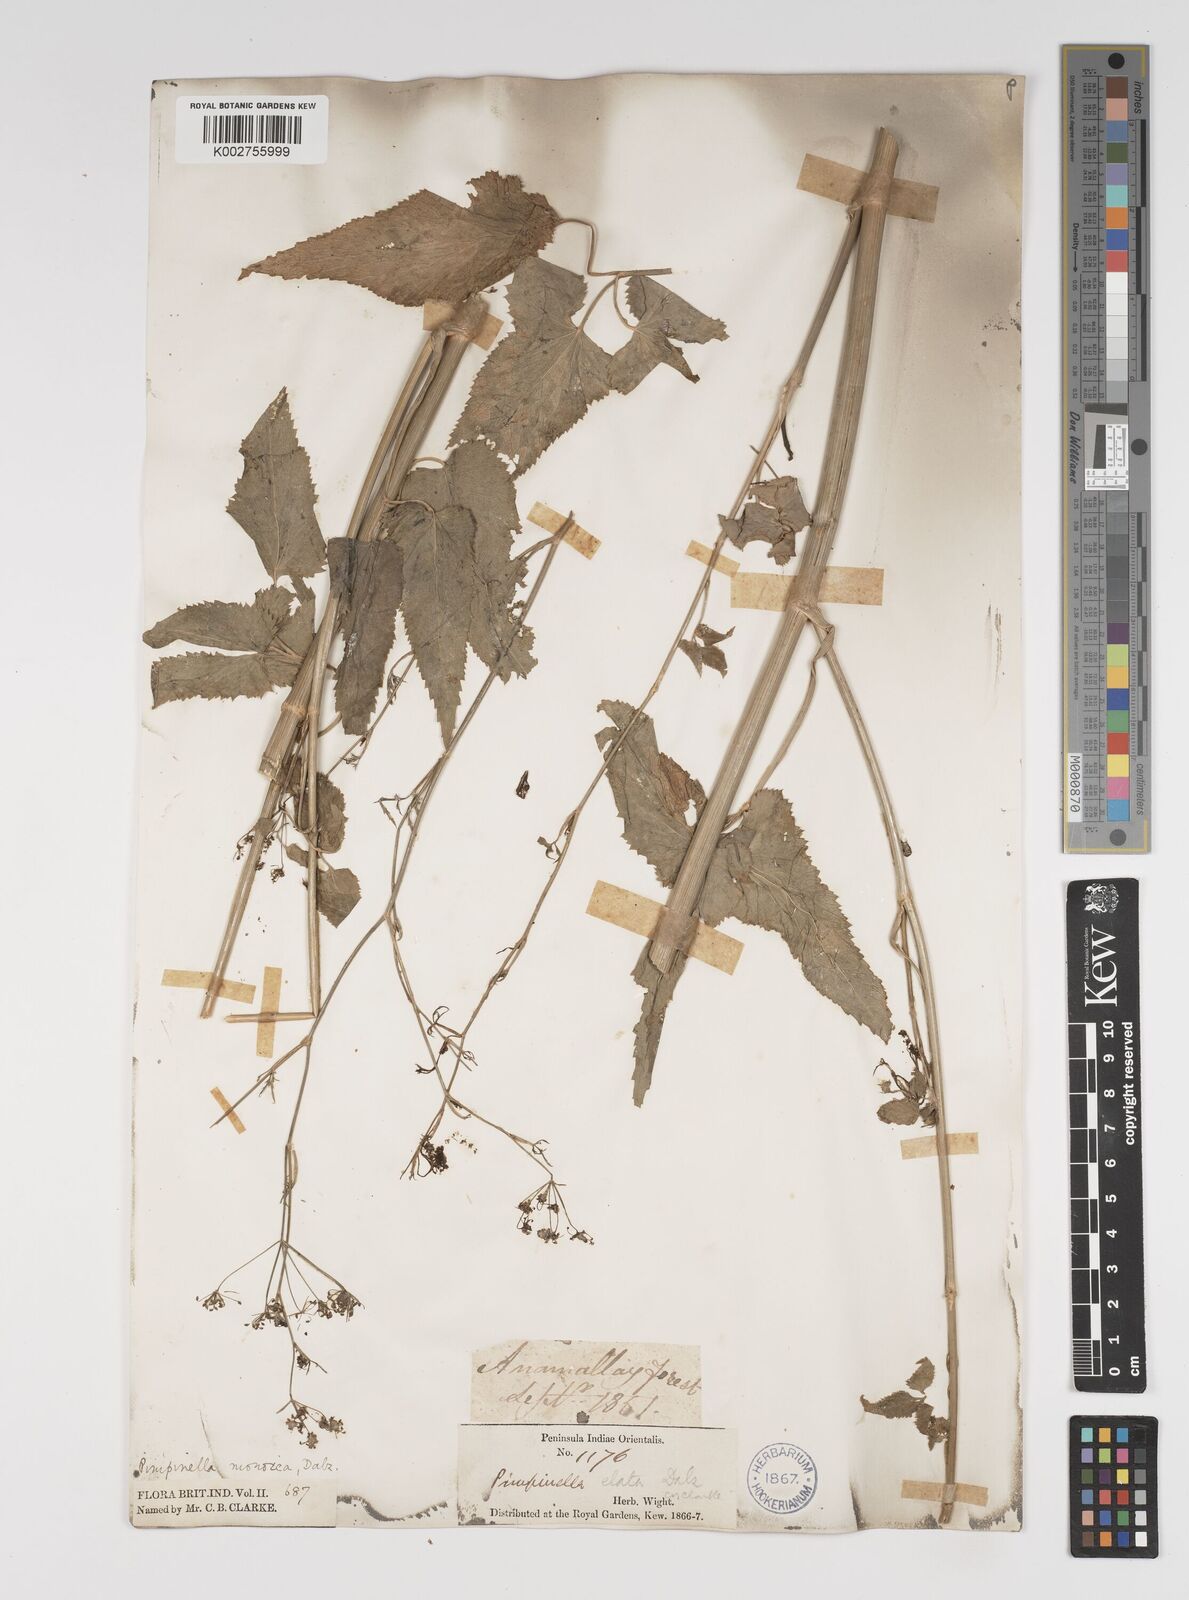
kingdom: Plantae
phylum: Tracheophyta
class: Magnoliopsida
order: Apiales
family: Apiaceae
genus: Pimpinella
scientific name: Pimpinella wallichiana
